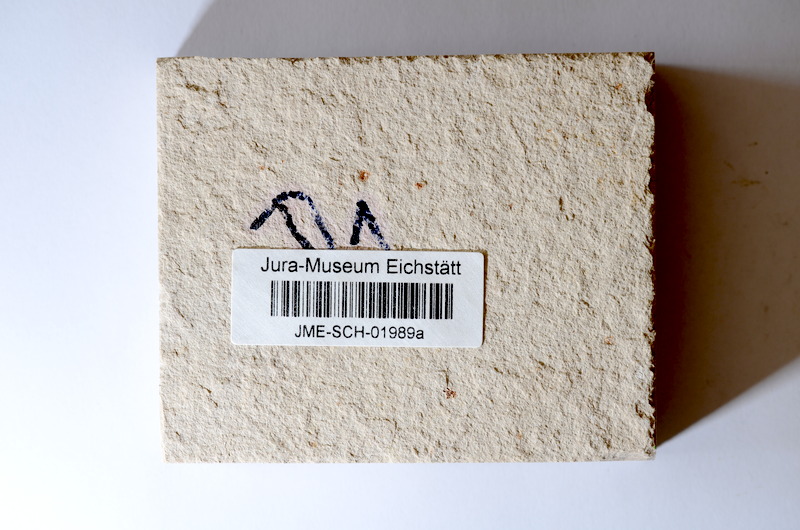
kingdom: Animalia
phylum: Chordata
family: Ascalaboidae
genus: Tharsis
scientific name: Tharsis dubius
